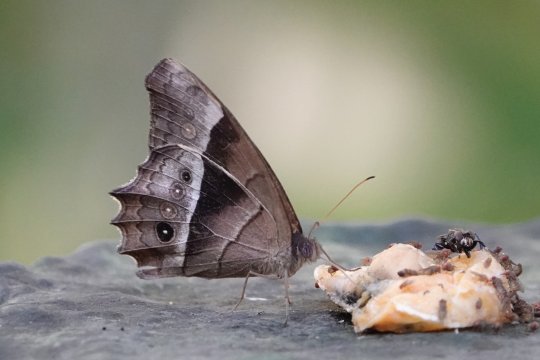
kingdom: Animalia
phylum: Arthropoda
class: Insecta
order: Lepidoptera
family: Nymphalidae
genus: Taygetis
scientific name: Taygetis andromeda
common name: Uzza Satyr
